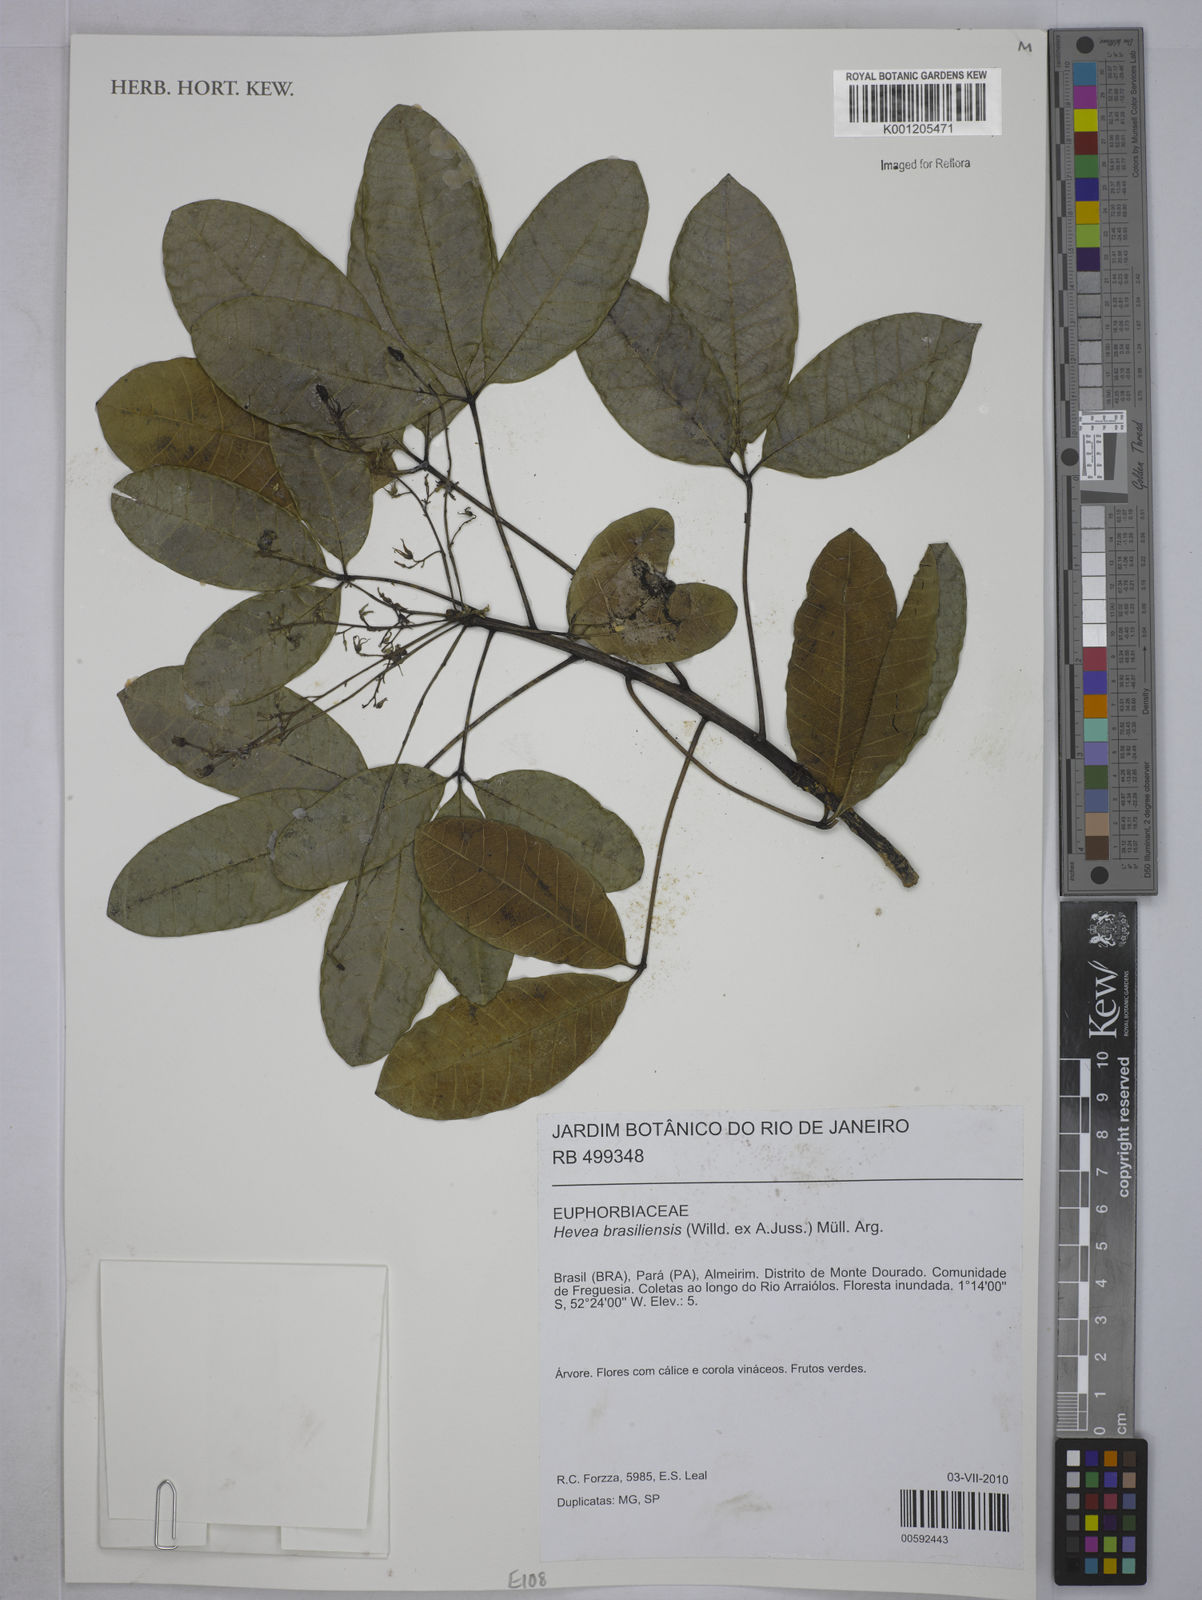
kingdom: Plantae
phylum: Tracheophyta
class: Magnoliopsida
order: Malpighiales
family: Euphorbiaceae
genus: Hevea
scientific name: Hevea
